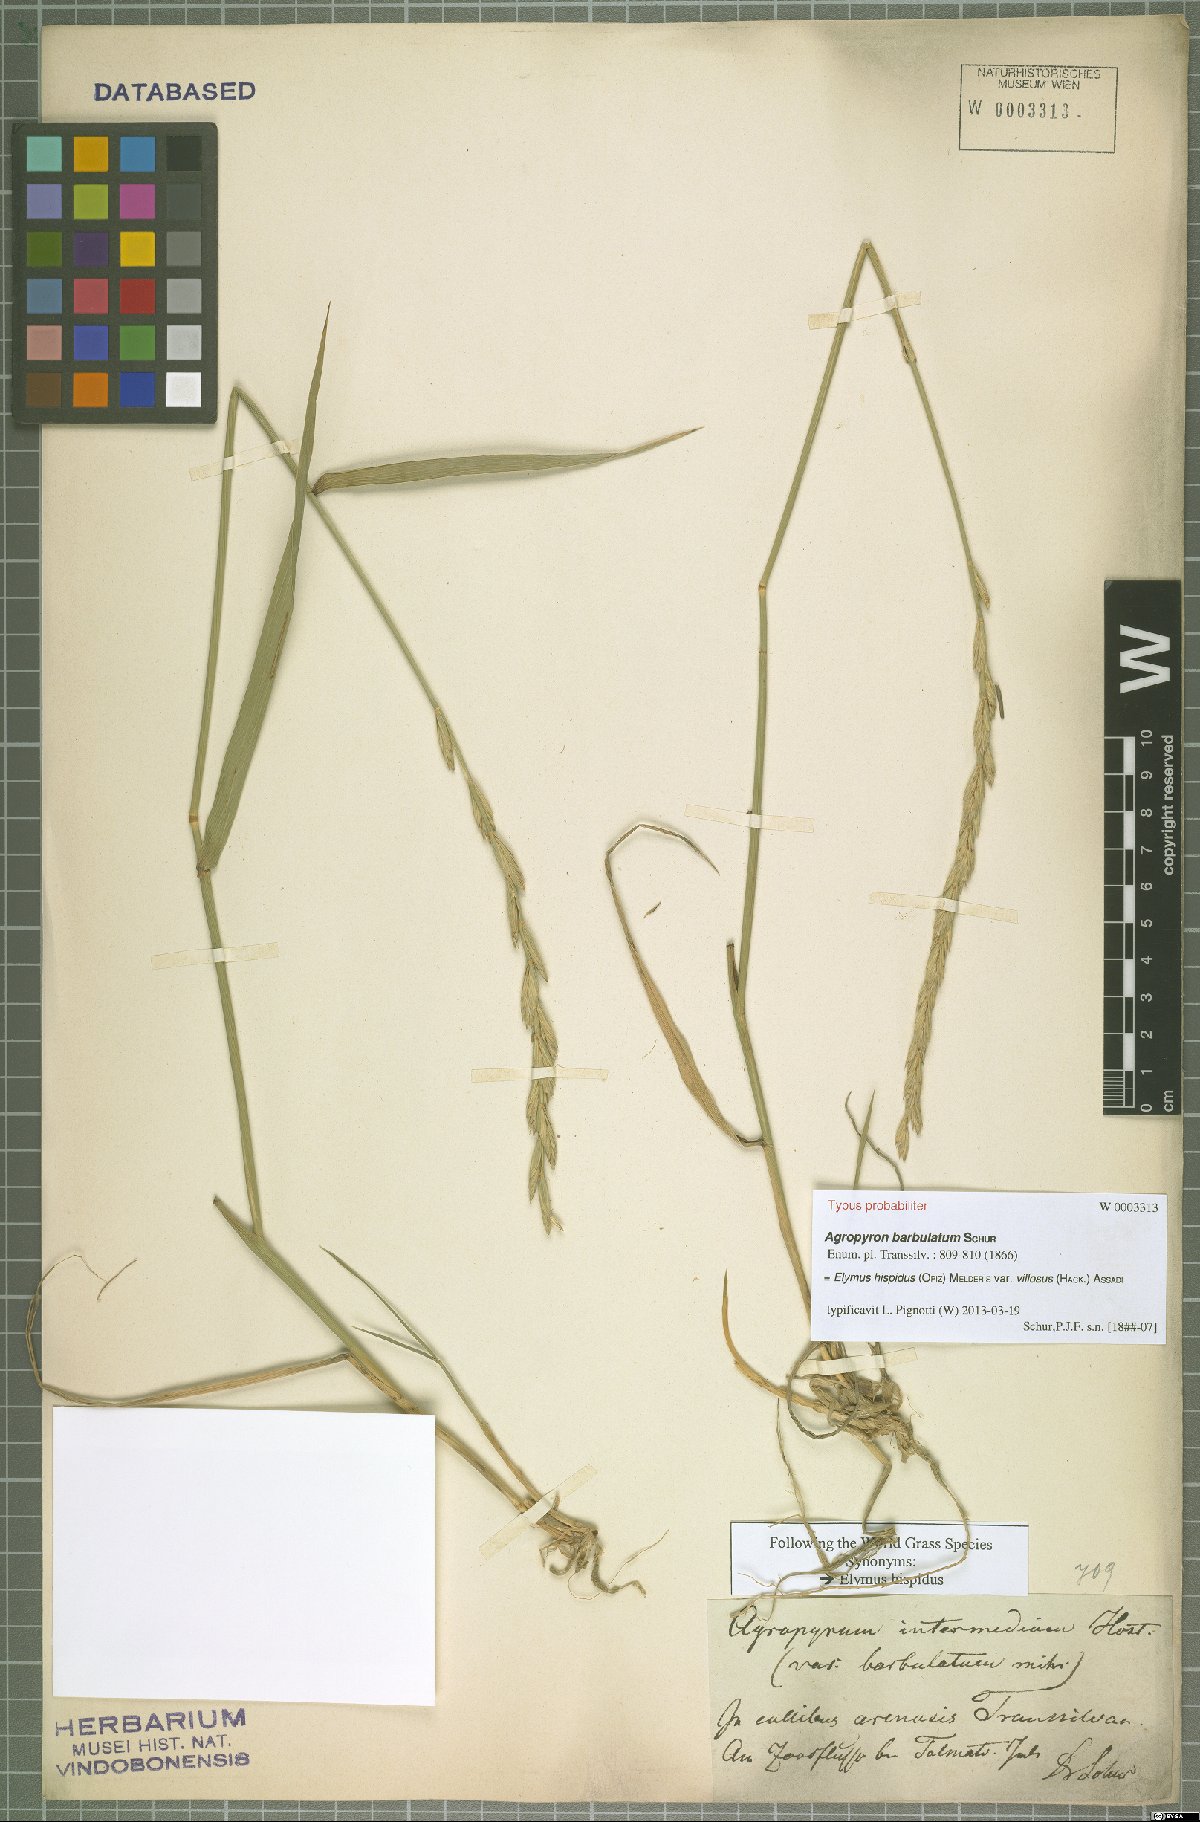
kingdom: Plantae
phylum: Tracheophyta
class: Liliopsida
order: Poales
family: Poaceae
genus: Thinopyrum
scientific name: Thinopyrum intermedium
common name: Intermediate wheatgrass
